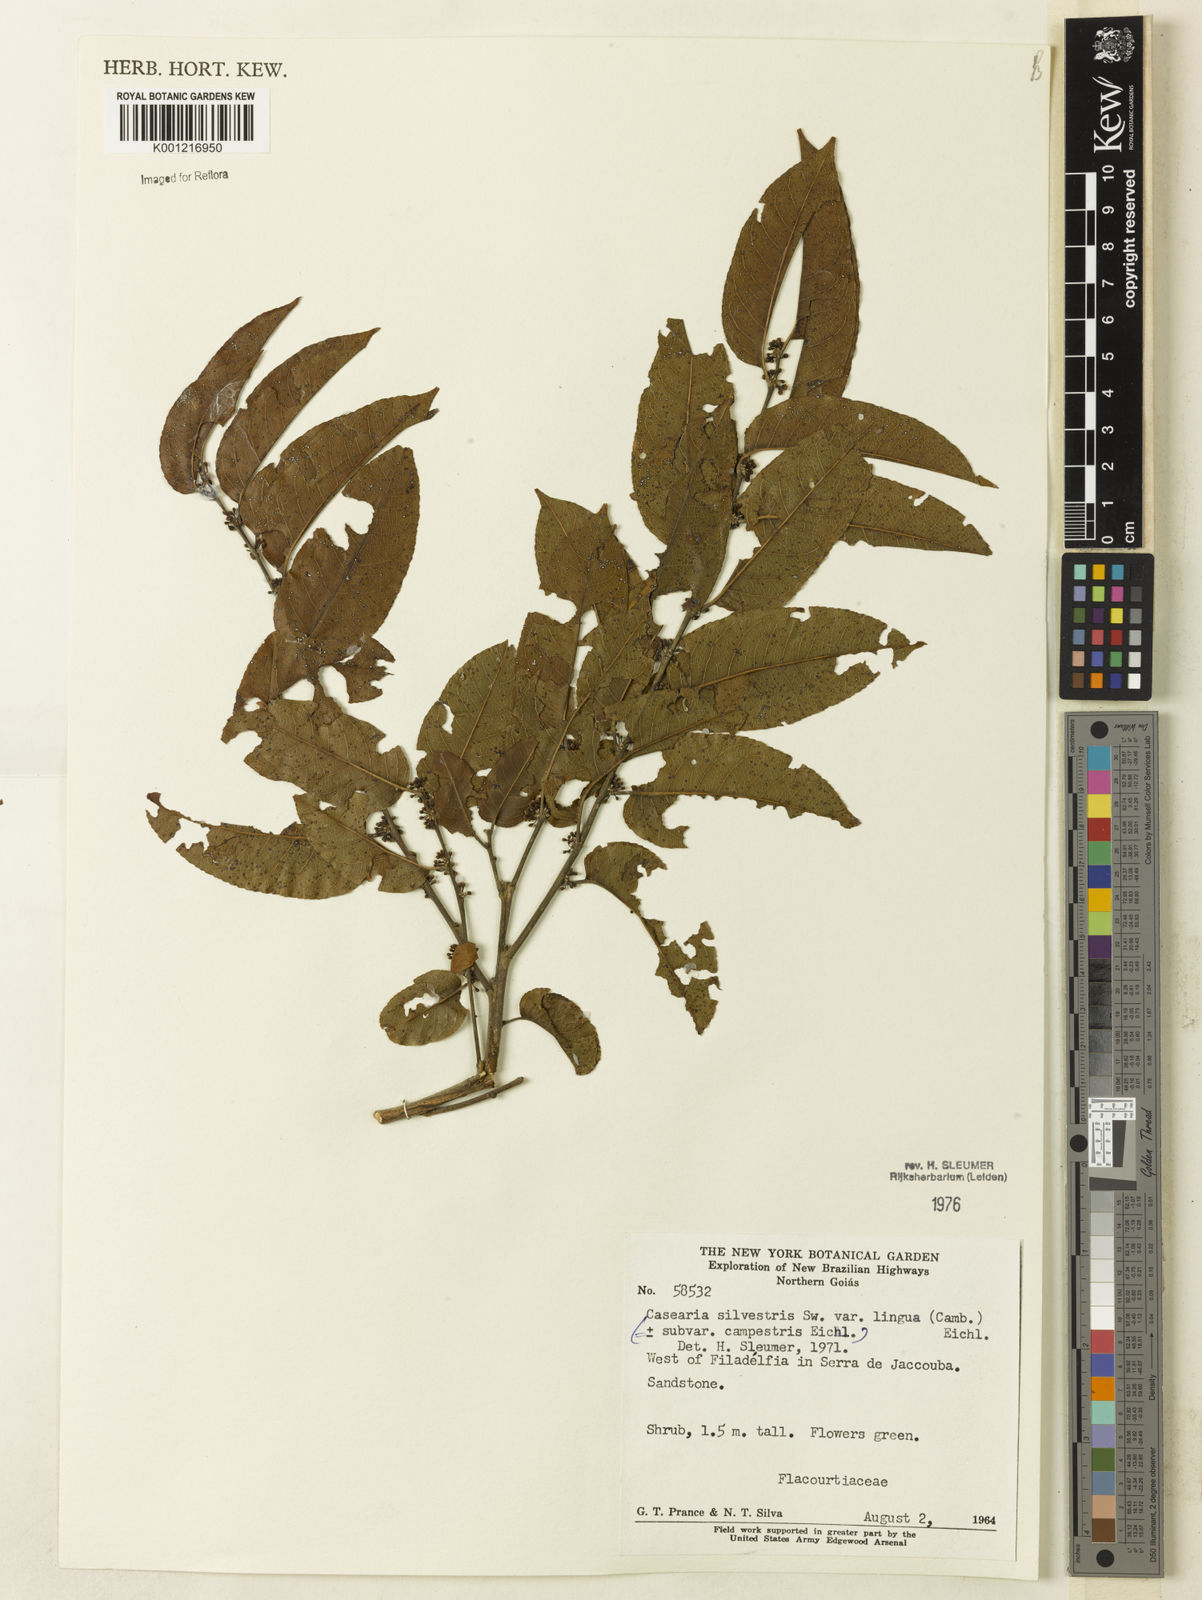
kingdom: Plantae
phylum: Tracheophyta
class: Magnoliopsida
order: Malpighiales
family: Salicaceae
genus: Casearia
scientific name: Casearia sylvestris
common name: Wild sage
